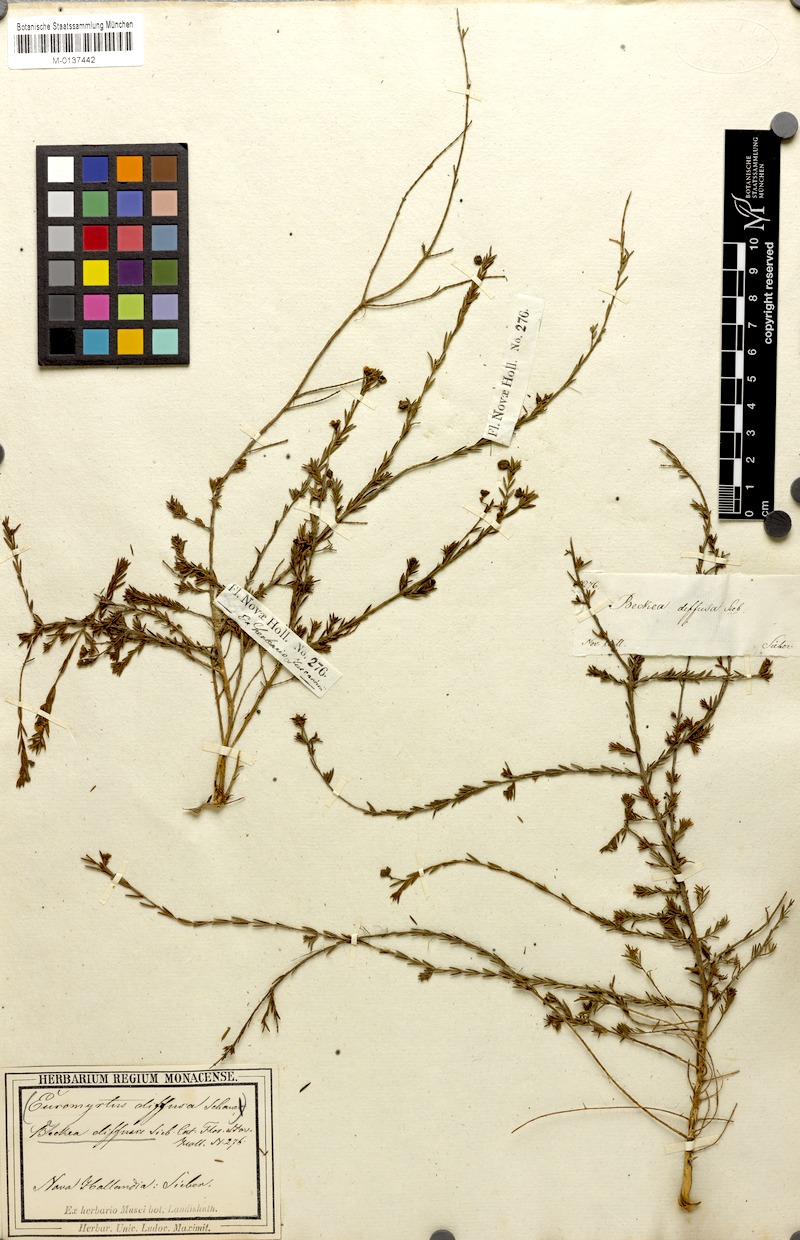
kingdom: Plantae
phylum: Tracheophyta
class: Magnoliopsida
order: Myrtales
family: Myrtaceae
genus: Euryomyrtus
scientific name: Euryomyrtus ramosissima
